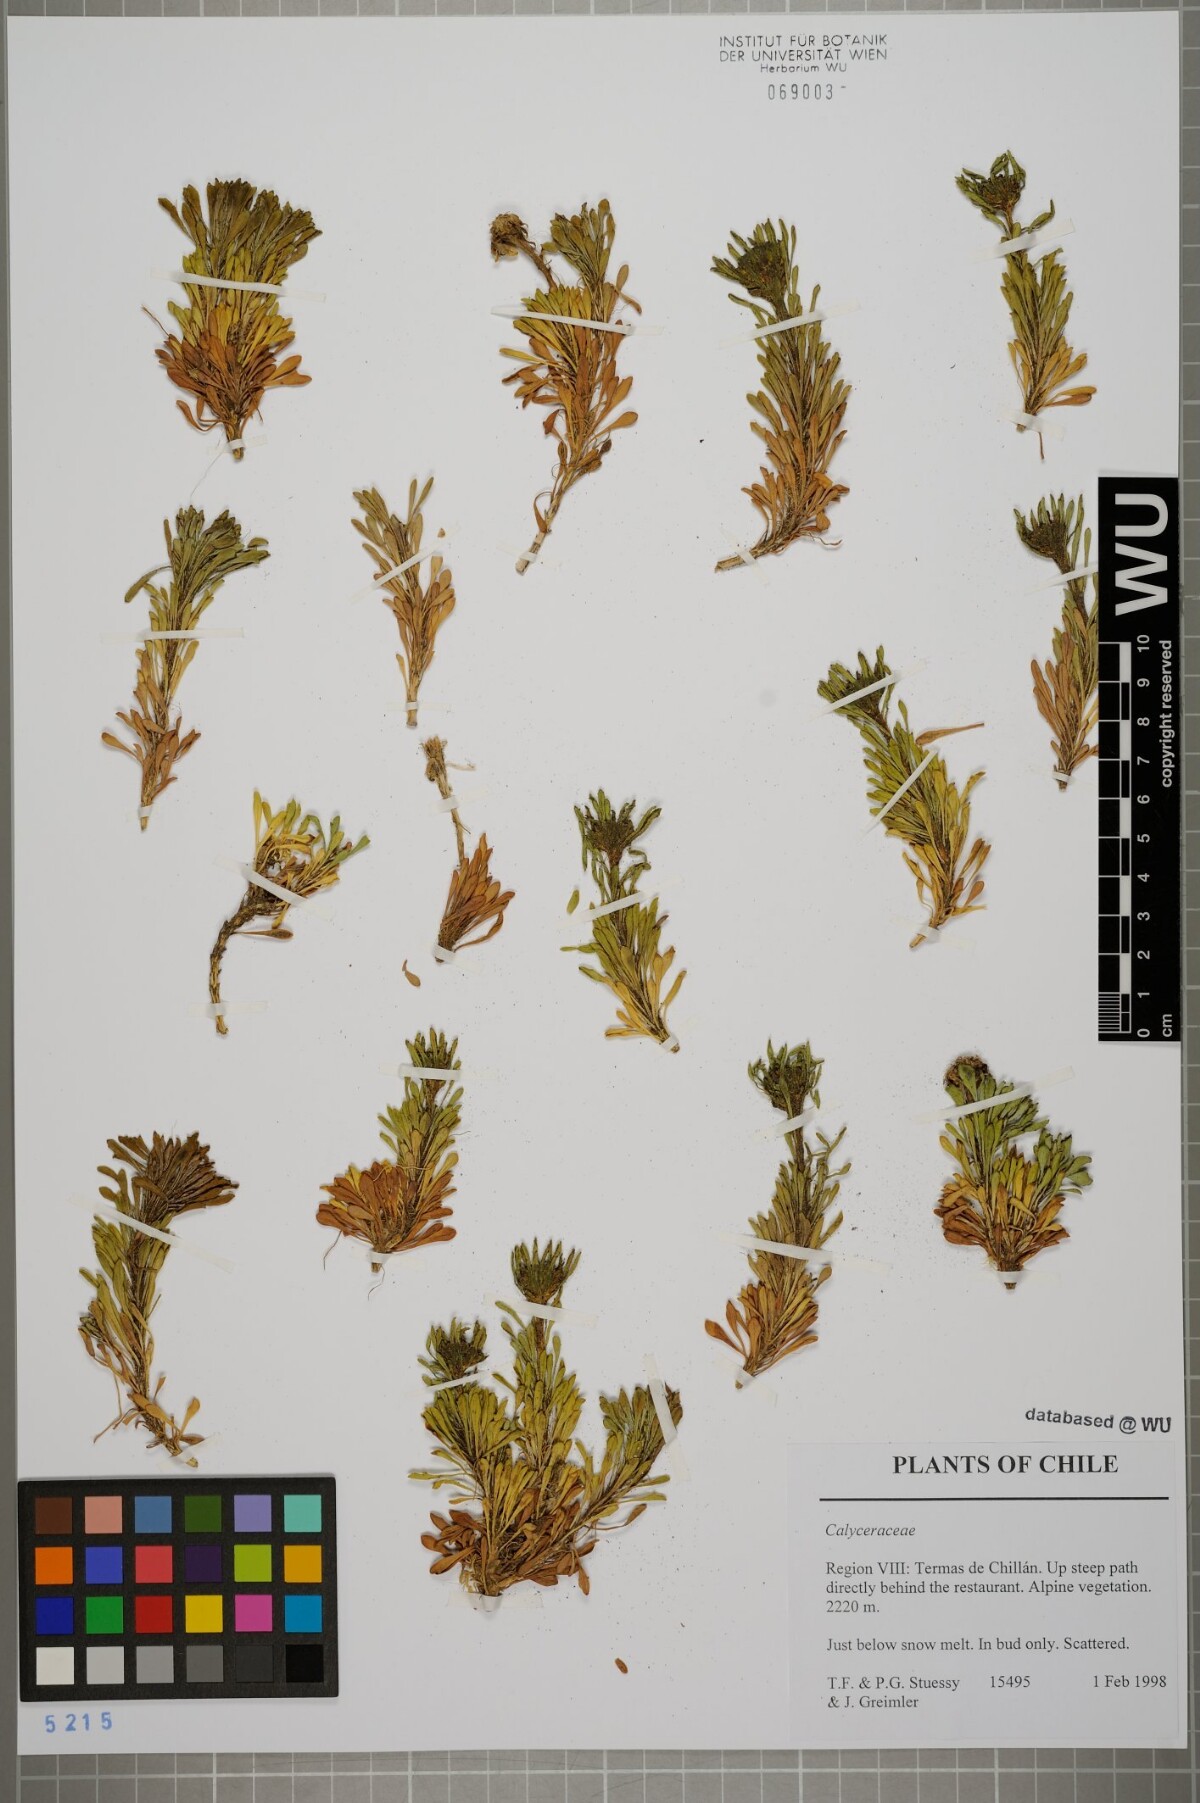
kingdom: Plantae
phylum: Tracheophyta
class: Magnoliopsida
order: Asterales
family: Calyceraceae
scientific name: Calyceraceae
